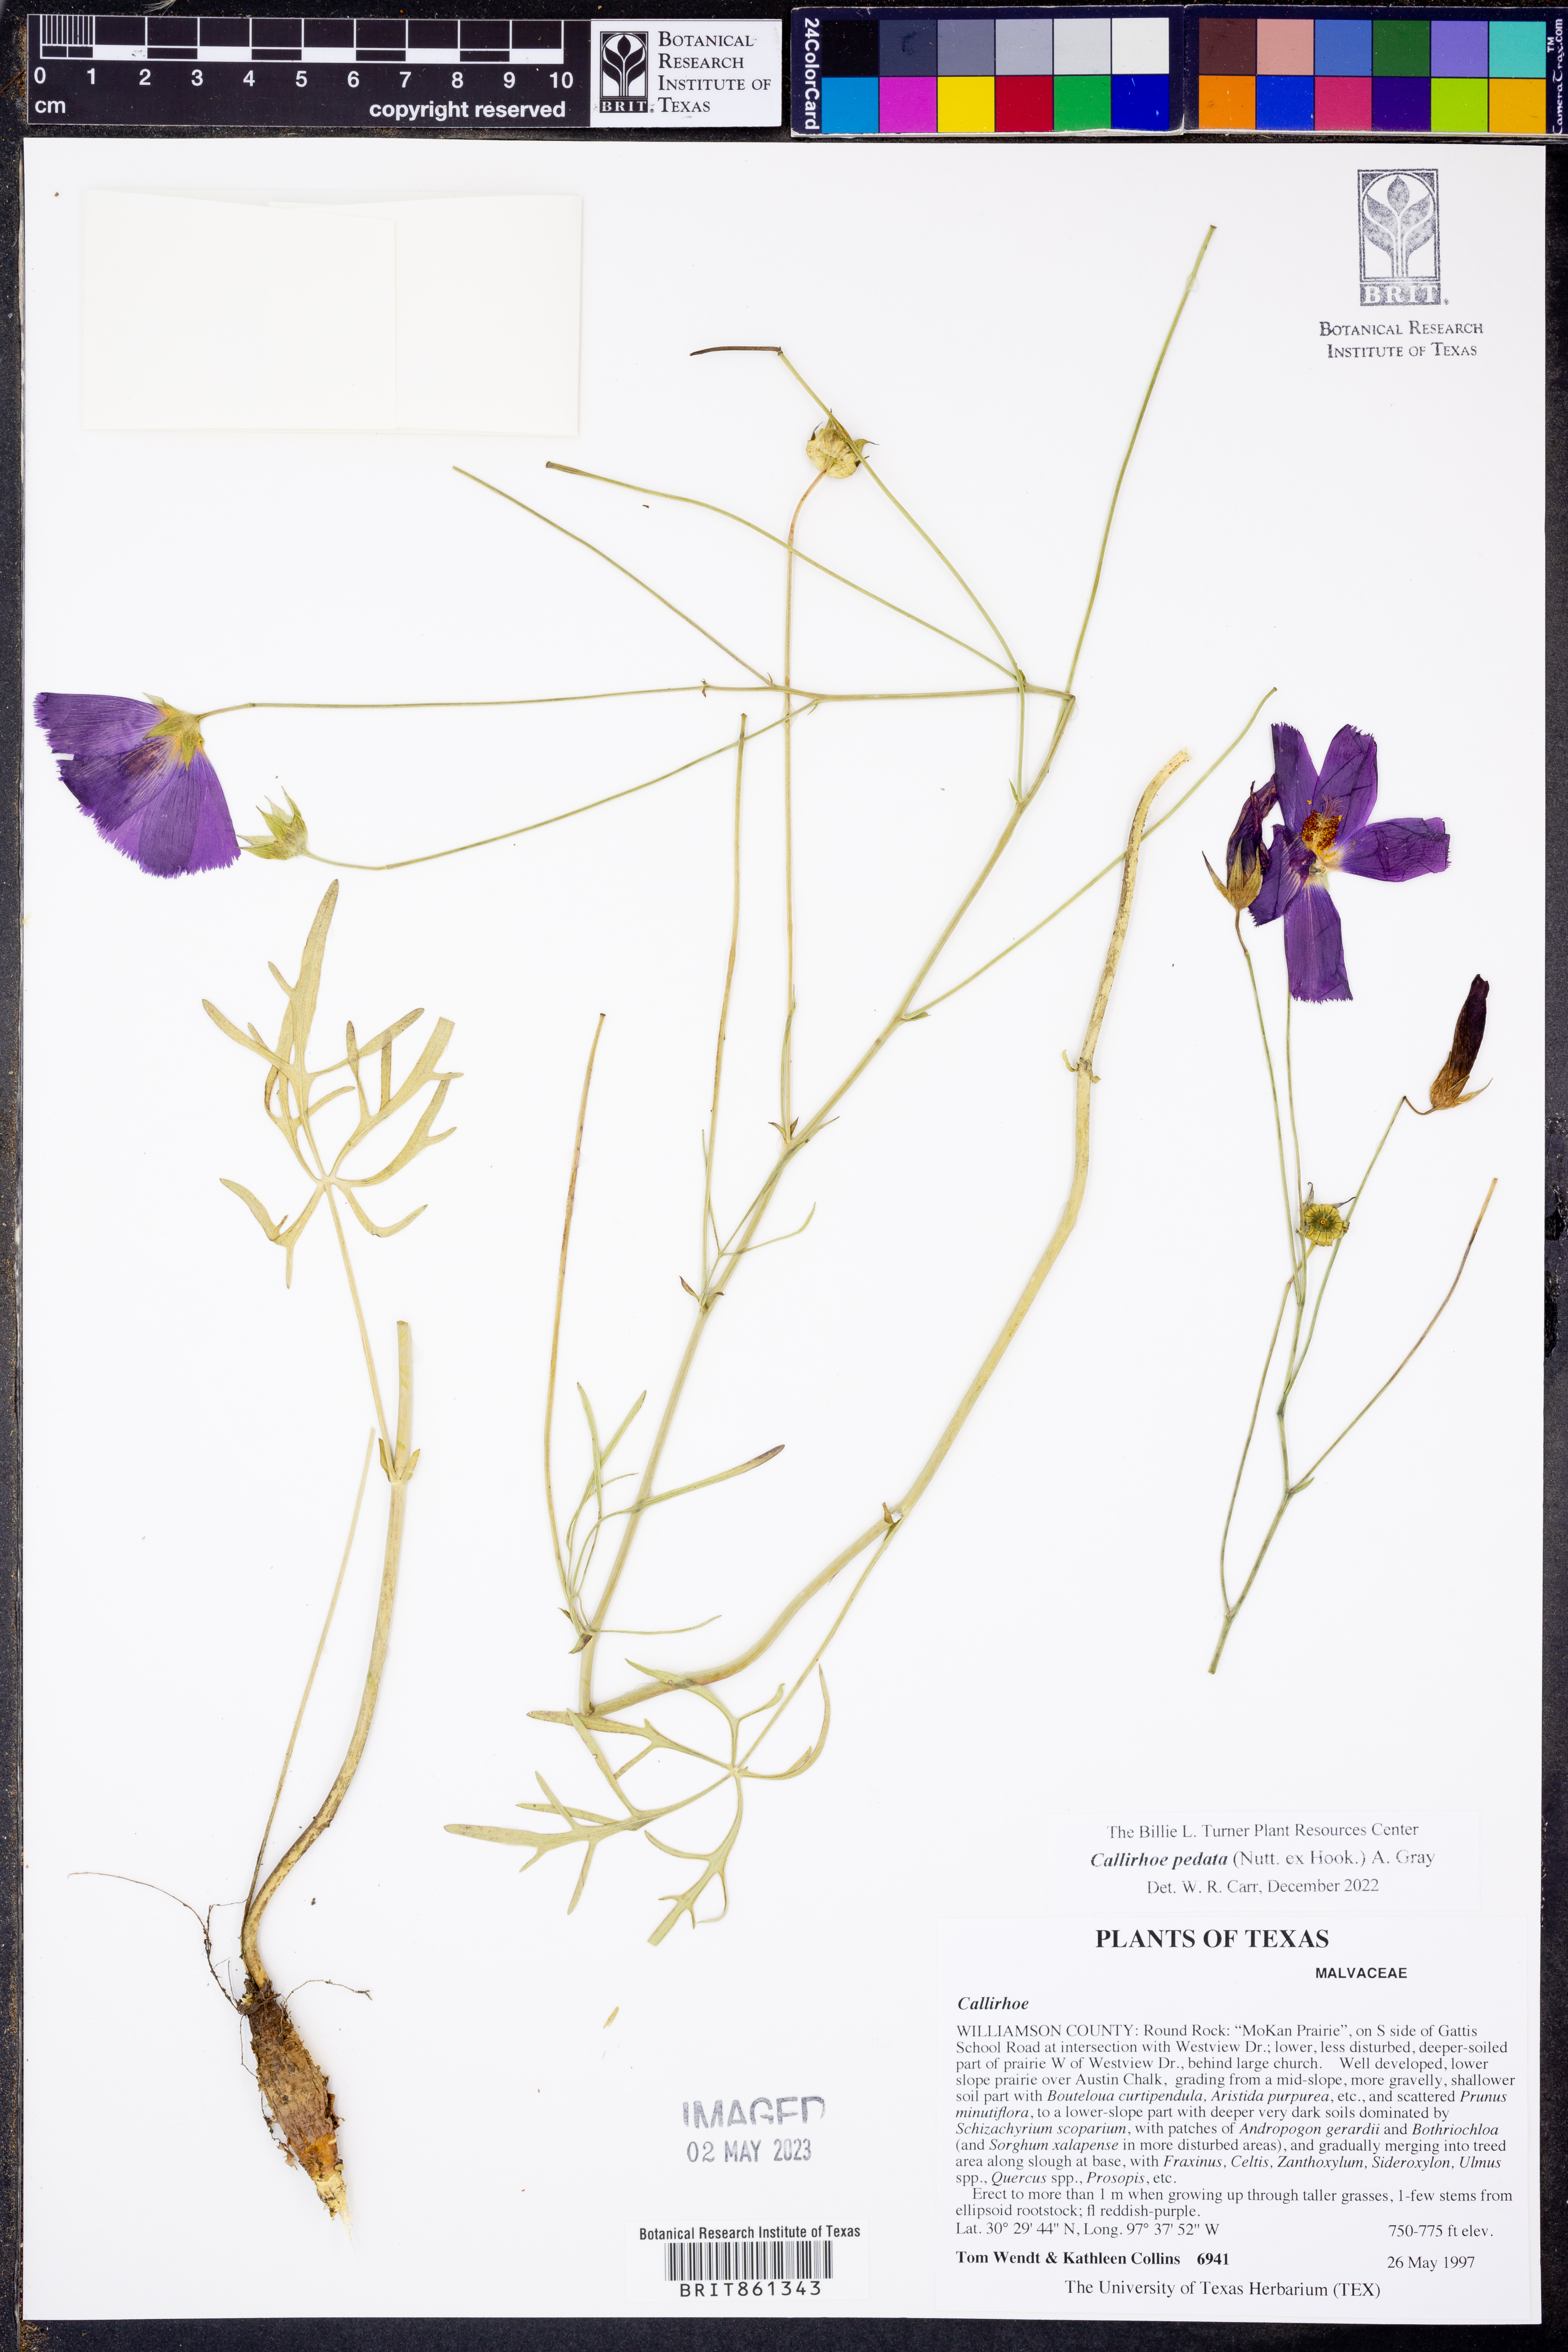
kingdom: Plantae
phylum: Tracheophyta
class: Magnoliopsida
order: Malvales
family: Malvaceae
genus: Callirhoe
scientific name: Callirhoe pedata
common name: Finger poppy-mallow
